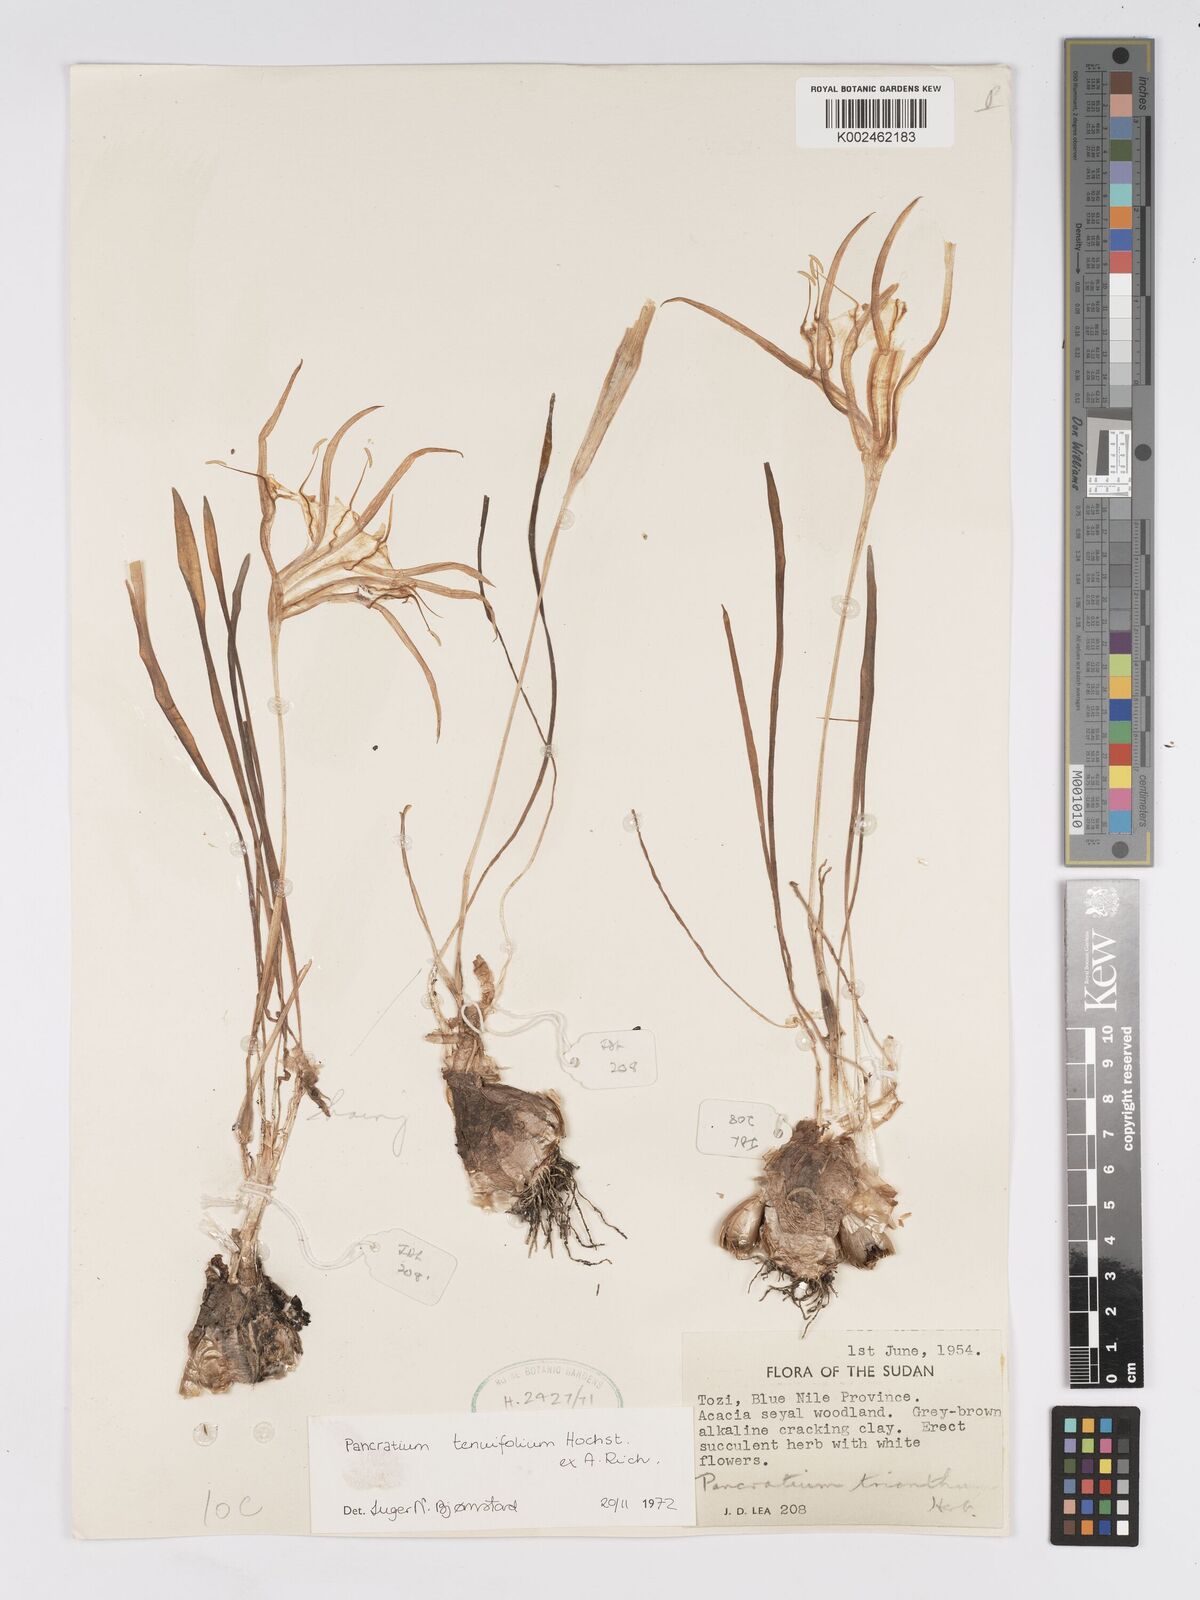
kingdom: Plantae
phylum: Tracheophyta
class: Liliopsida
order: Asparagales
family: Amaryllidaceae
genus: Pancratium
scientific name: Pancratium tenuifolium
